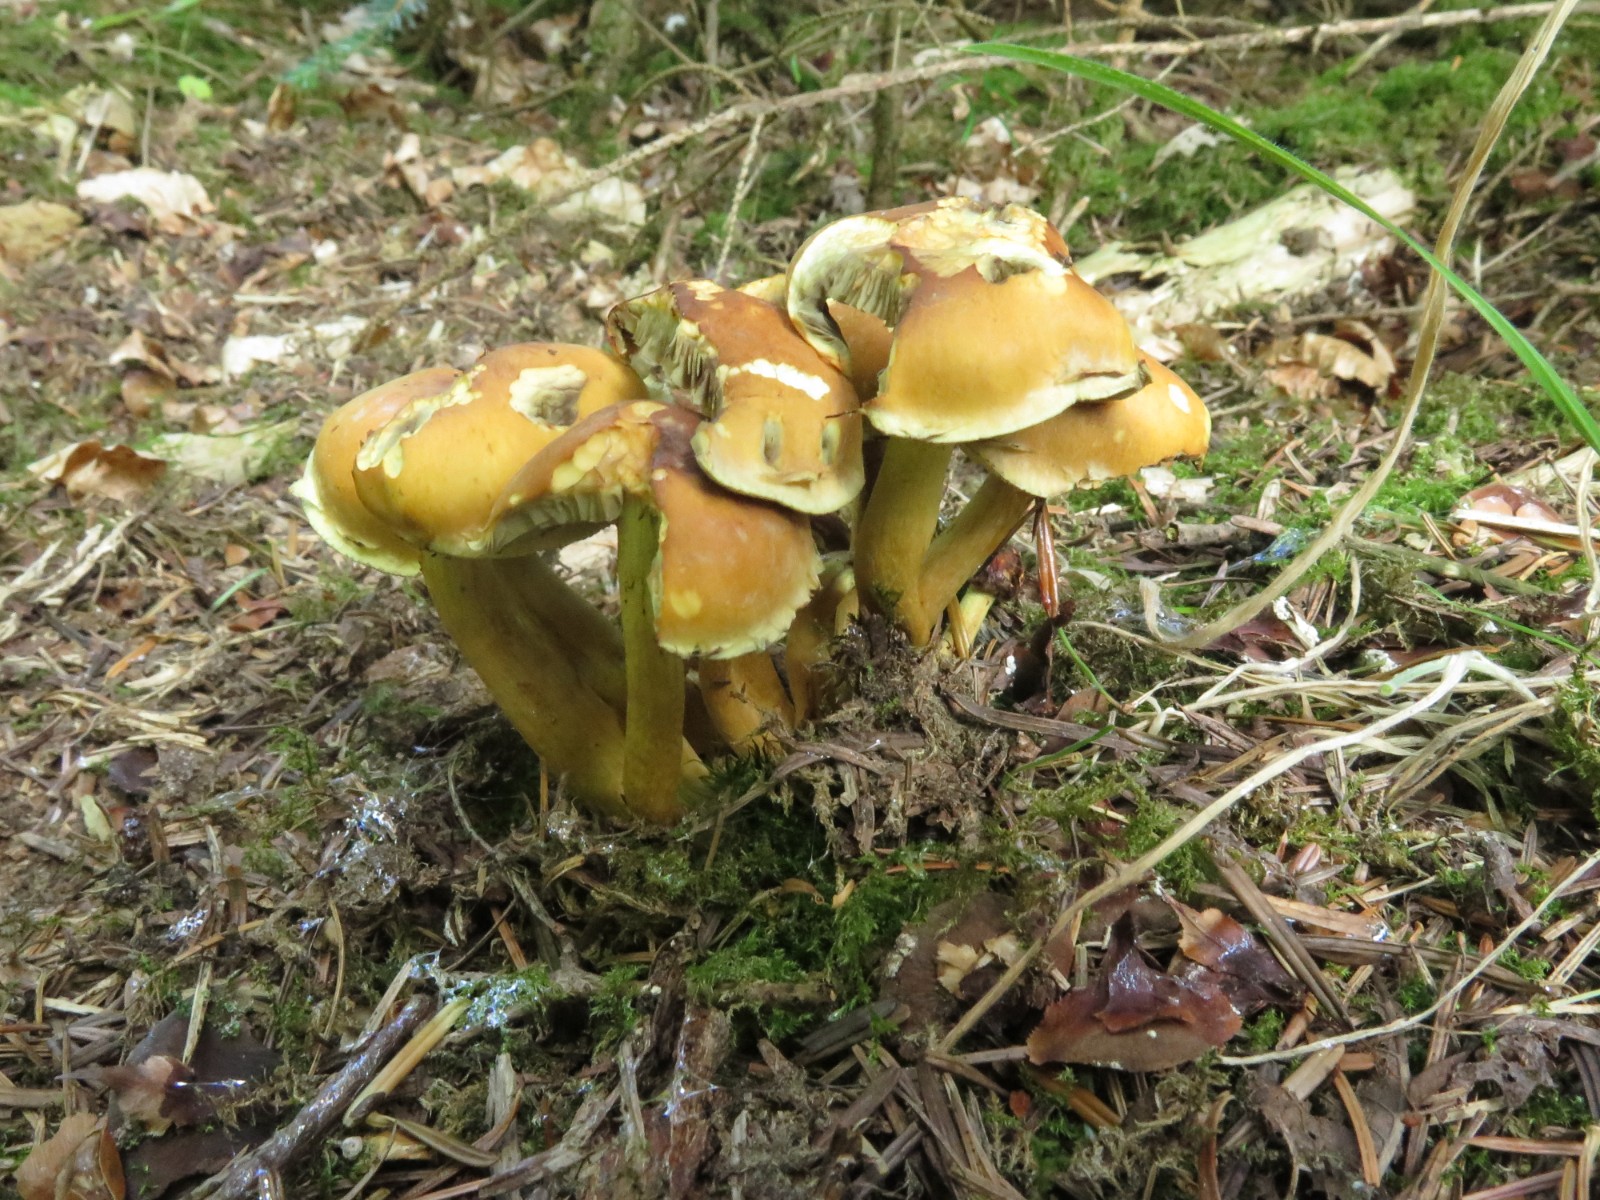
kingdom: Fungi
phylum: Basidiomycota
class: Agaricomycetes
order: Agaricales
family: Strophariaceae
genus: Hypholoma
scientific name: Hypholoma fasciculare
